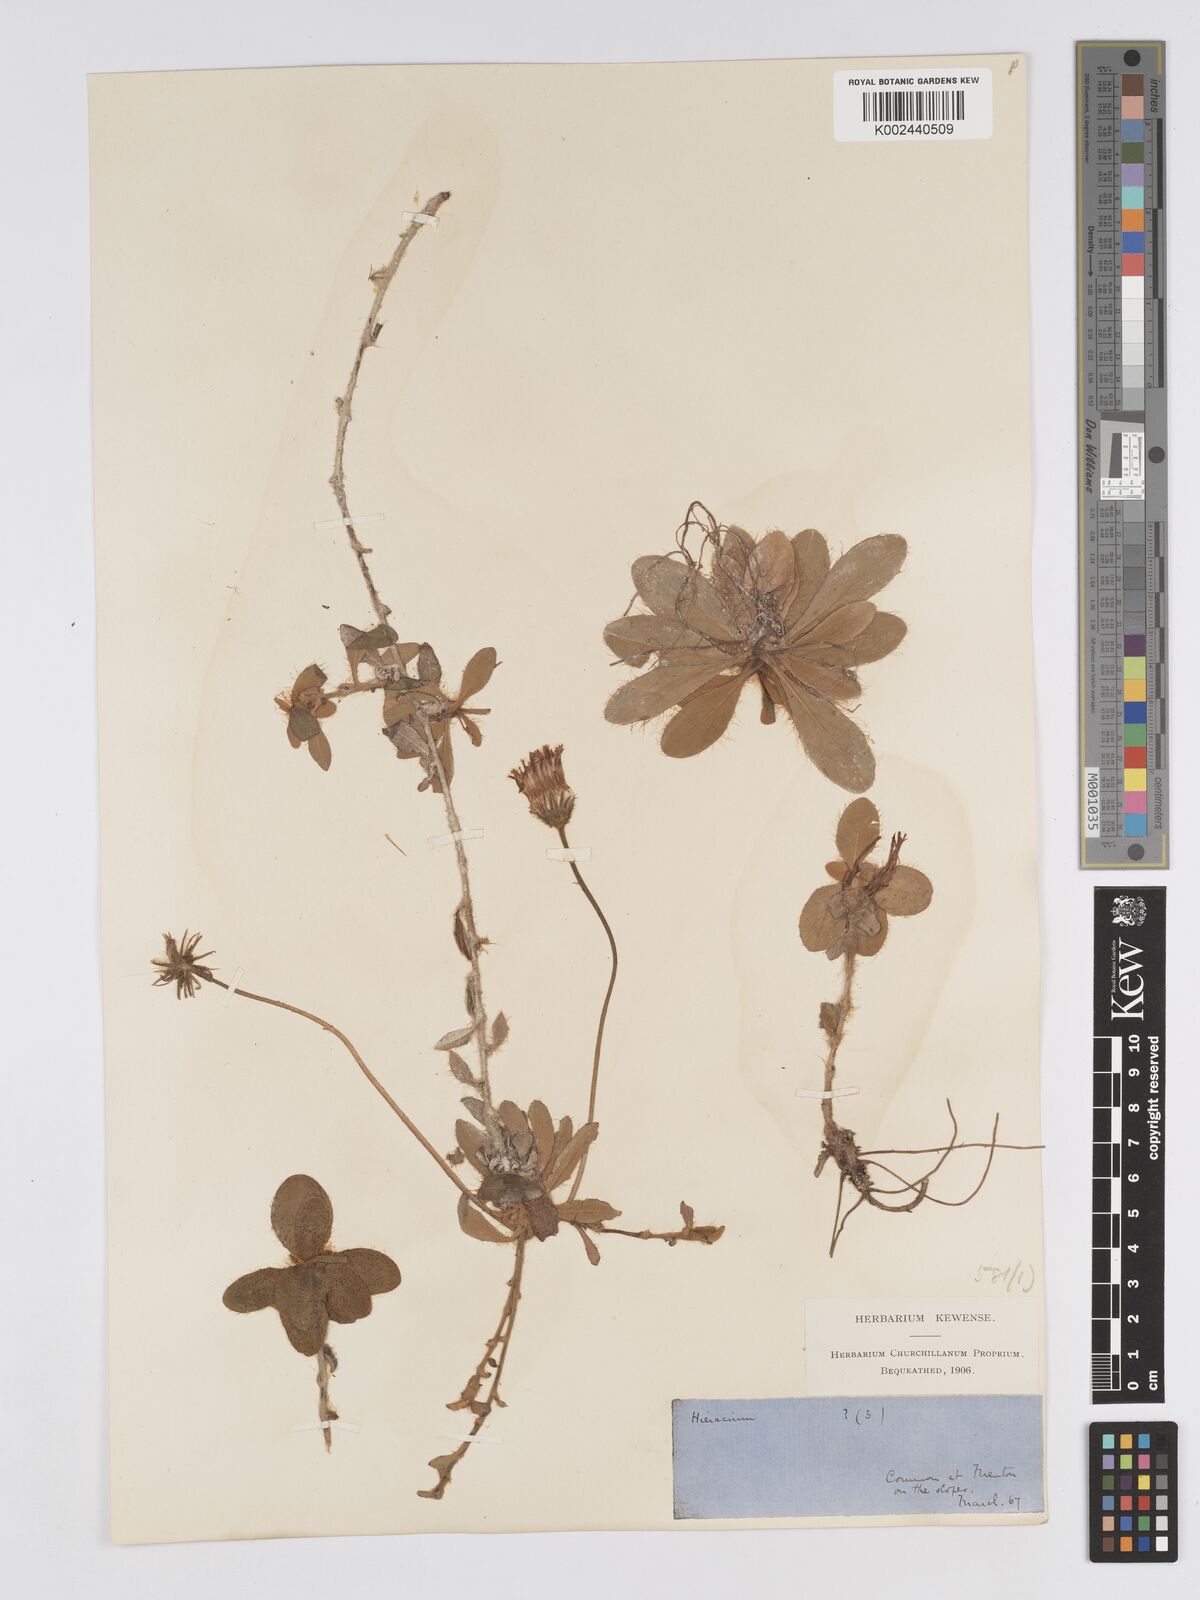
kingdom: Plantae
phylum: Tracheophyta
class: Magnoliopsida
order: Asterales
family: Asteraceae
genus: Pilosella
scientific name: Pilosella hypeurya
